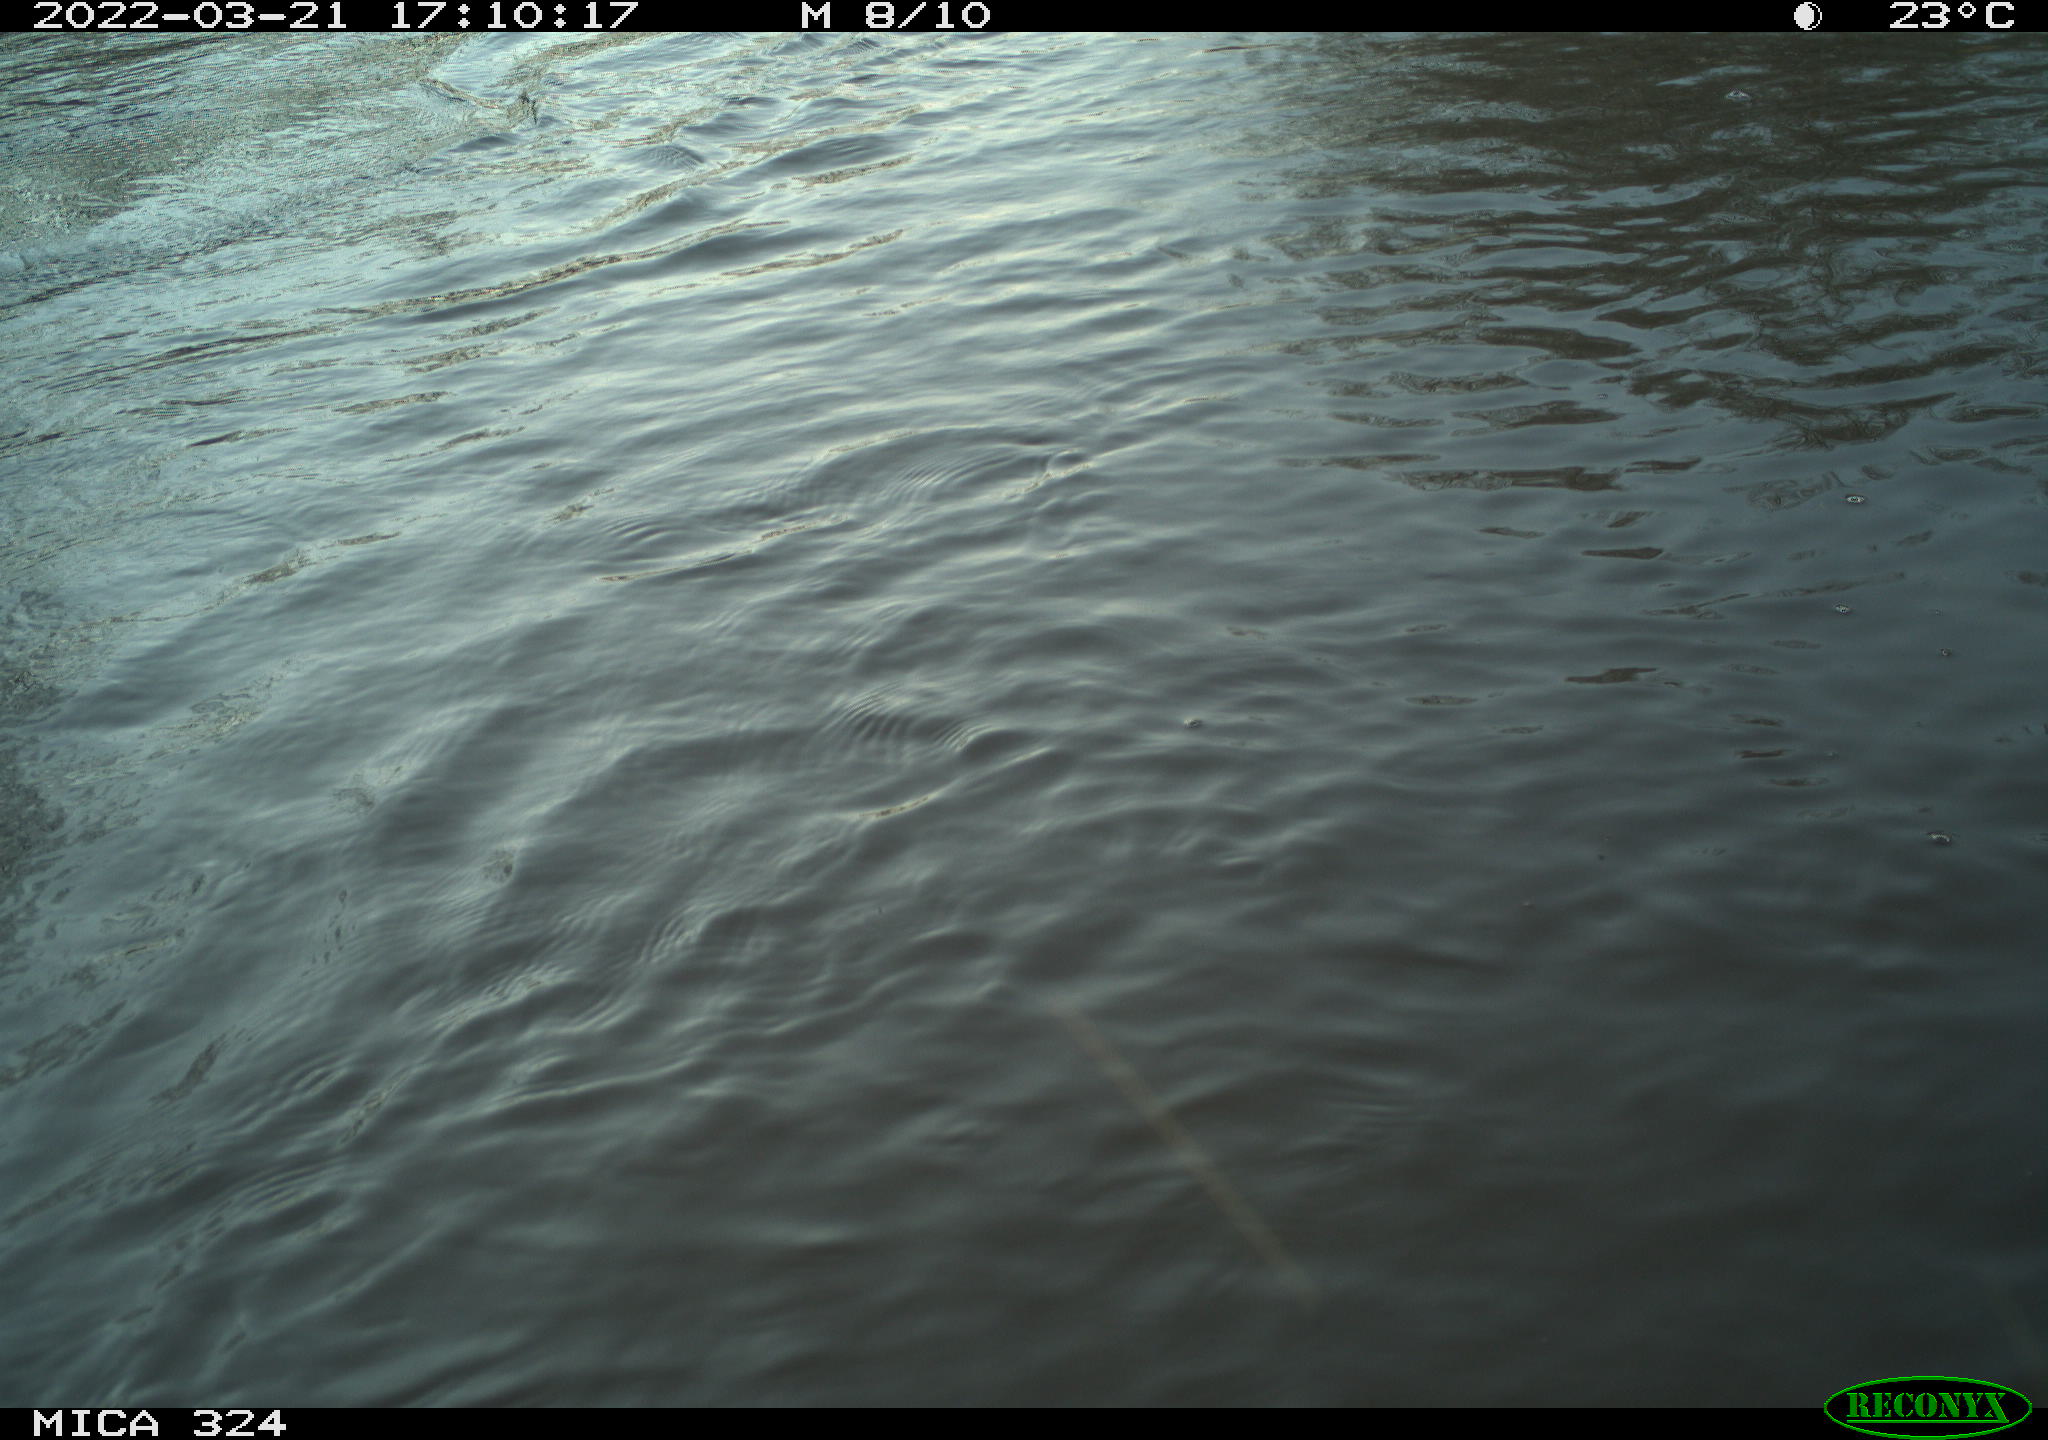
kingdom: Animalia
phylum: Chordata
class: Mammalia
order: Rodentia
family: Cricetidae
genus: Ondatra
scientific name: Ondatra zibethicus
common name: Muskrat
